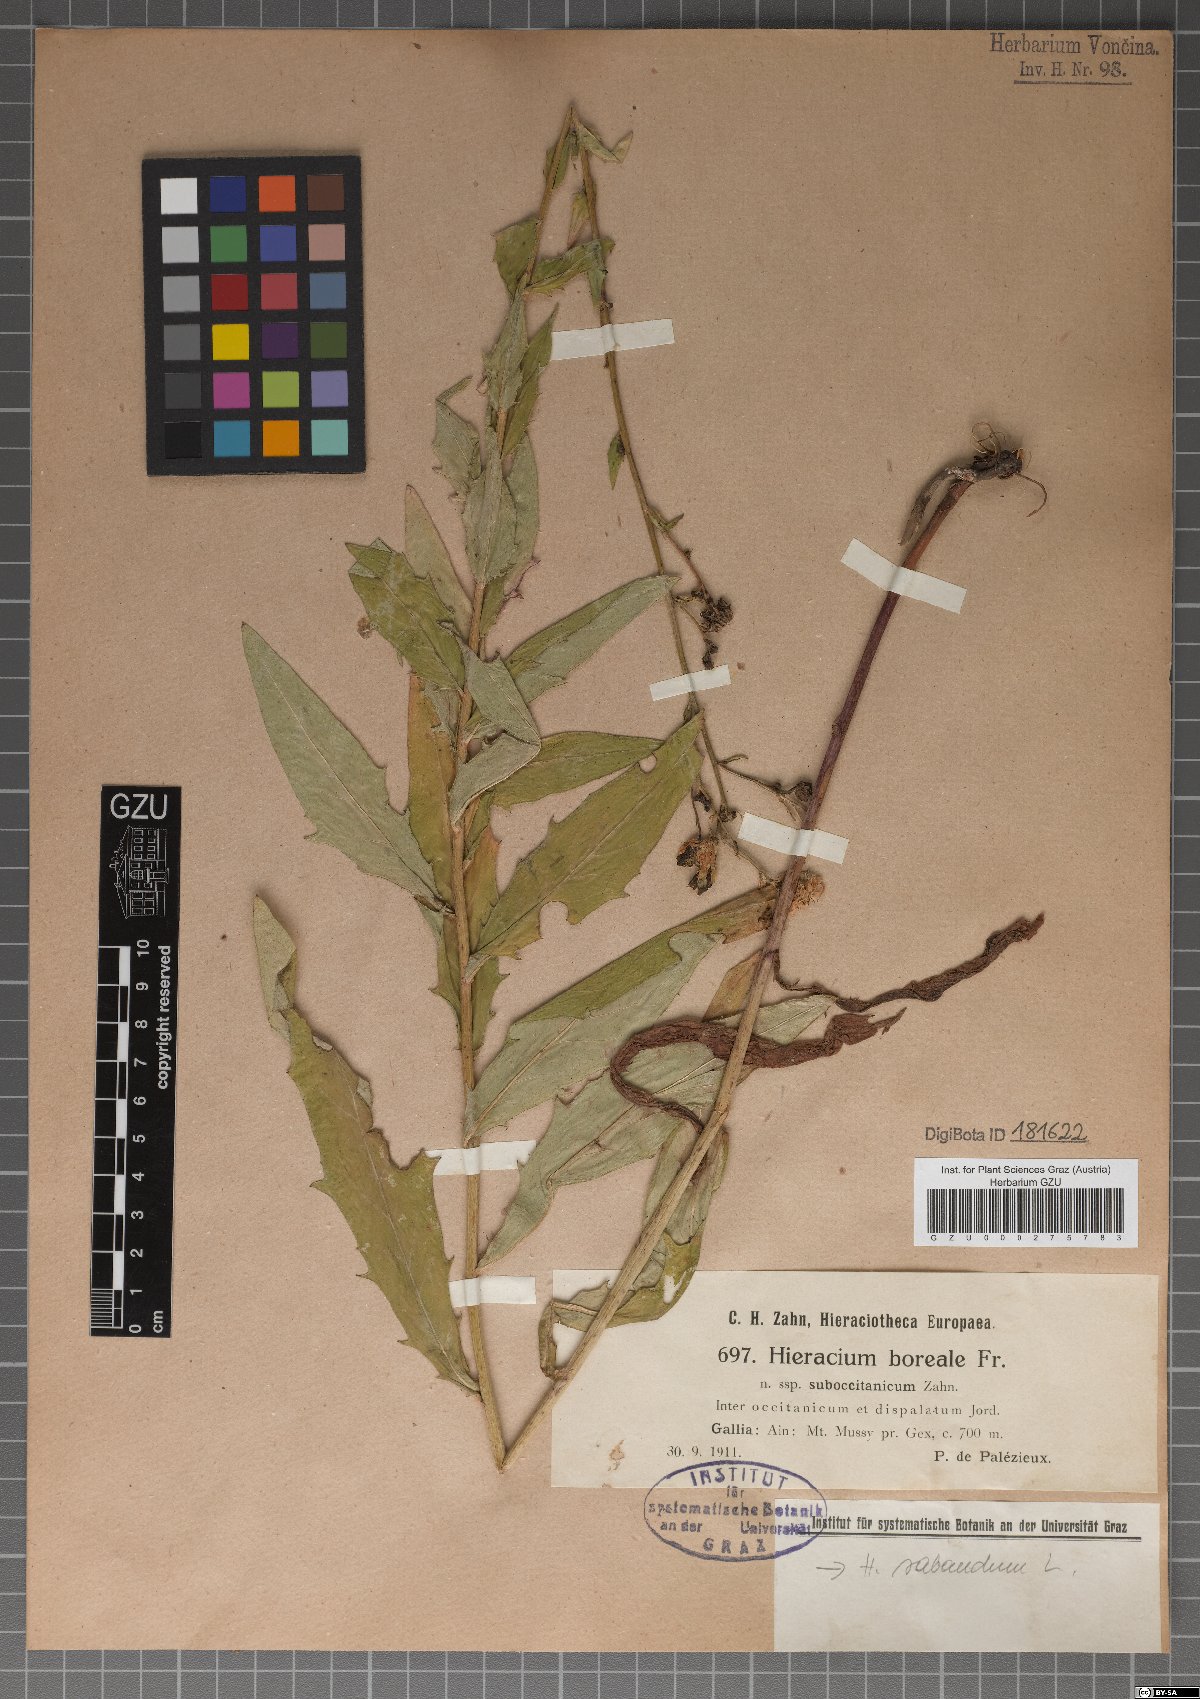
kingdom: Plantae
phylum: Tracheophyta
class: Magnoliopsida
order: Asterales
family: Asteraceae
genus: Hieracium
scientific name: Hieracium
